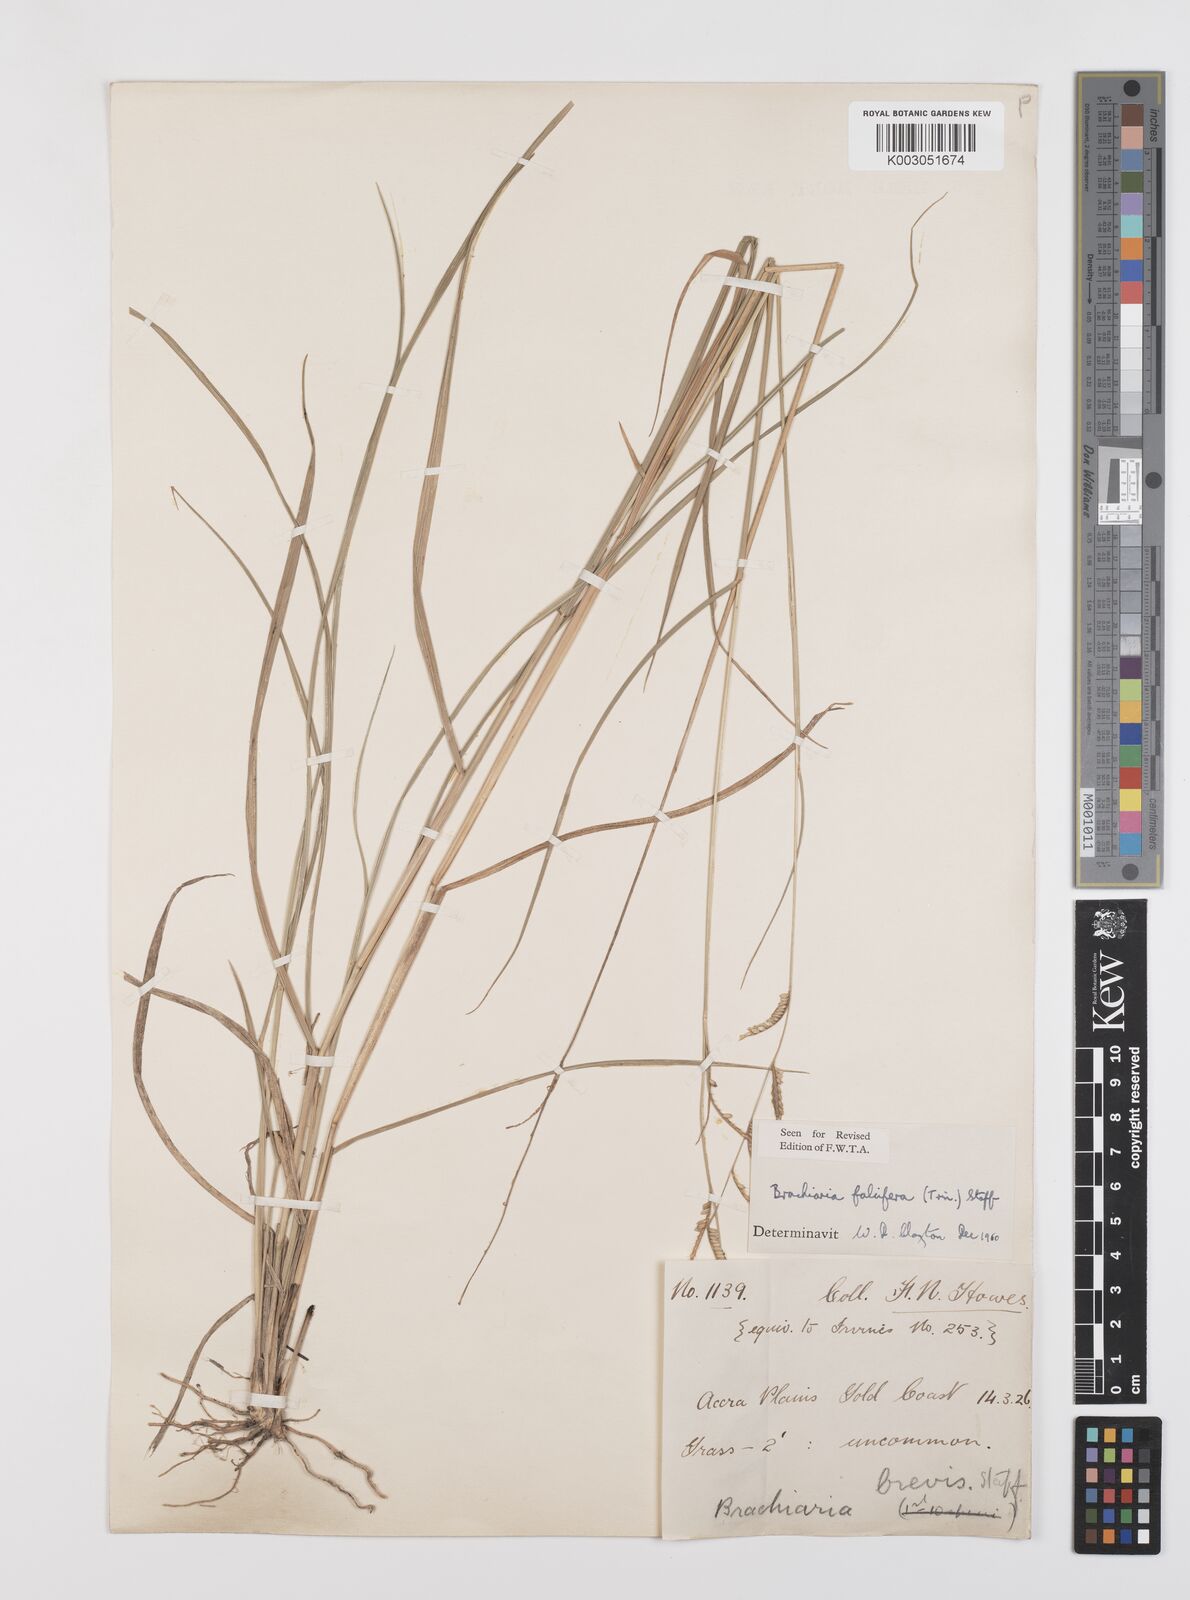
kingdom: Plantae
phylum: Tracheophyta
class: Liliopsida
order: Poales
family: Poaceae
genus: Urochloa
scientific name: Urochloa falcifera
